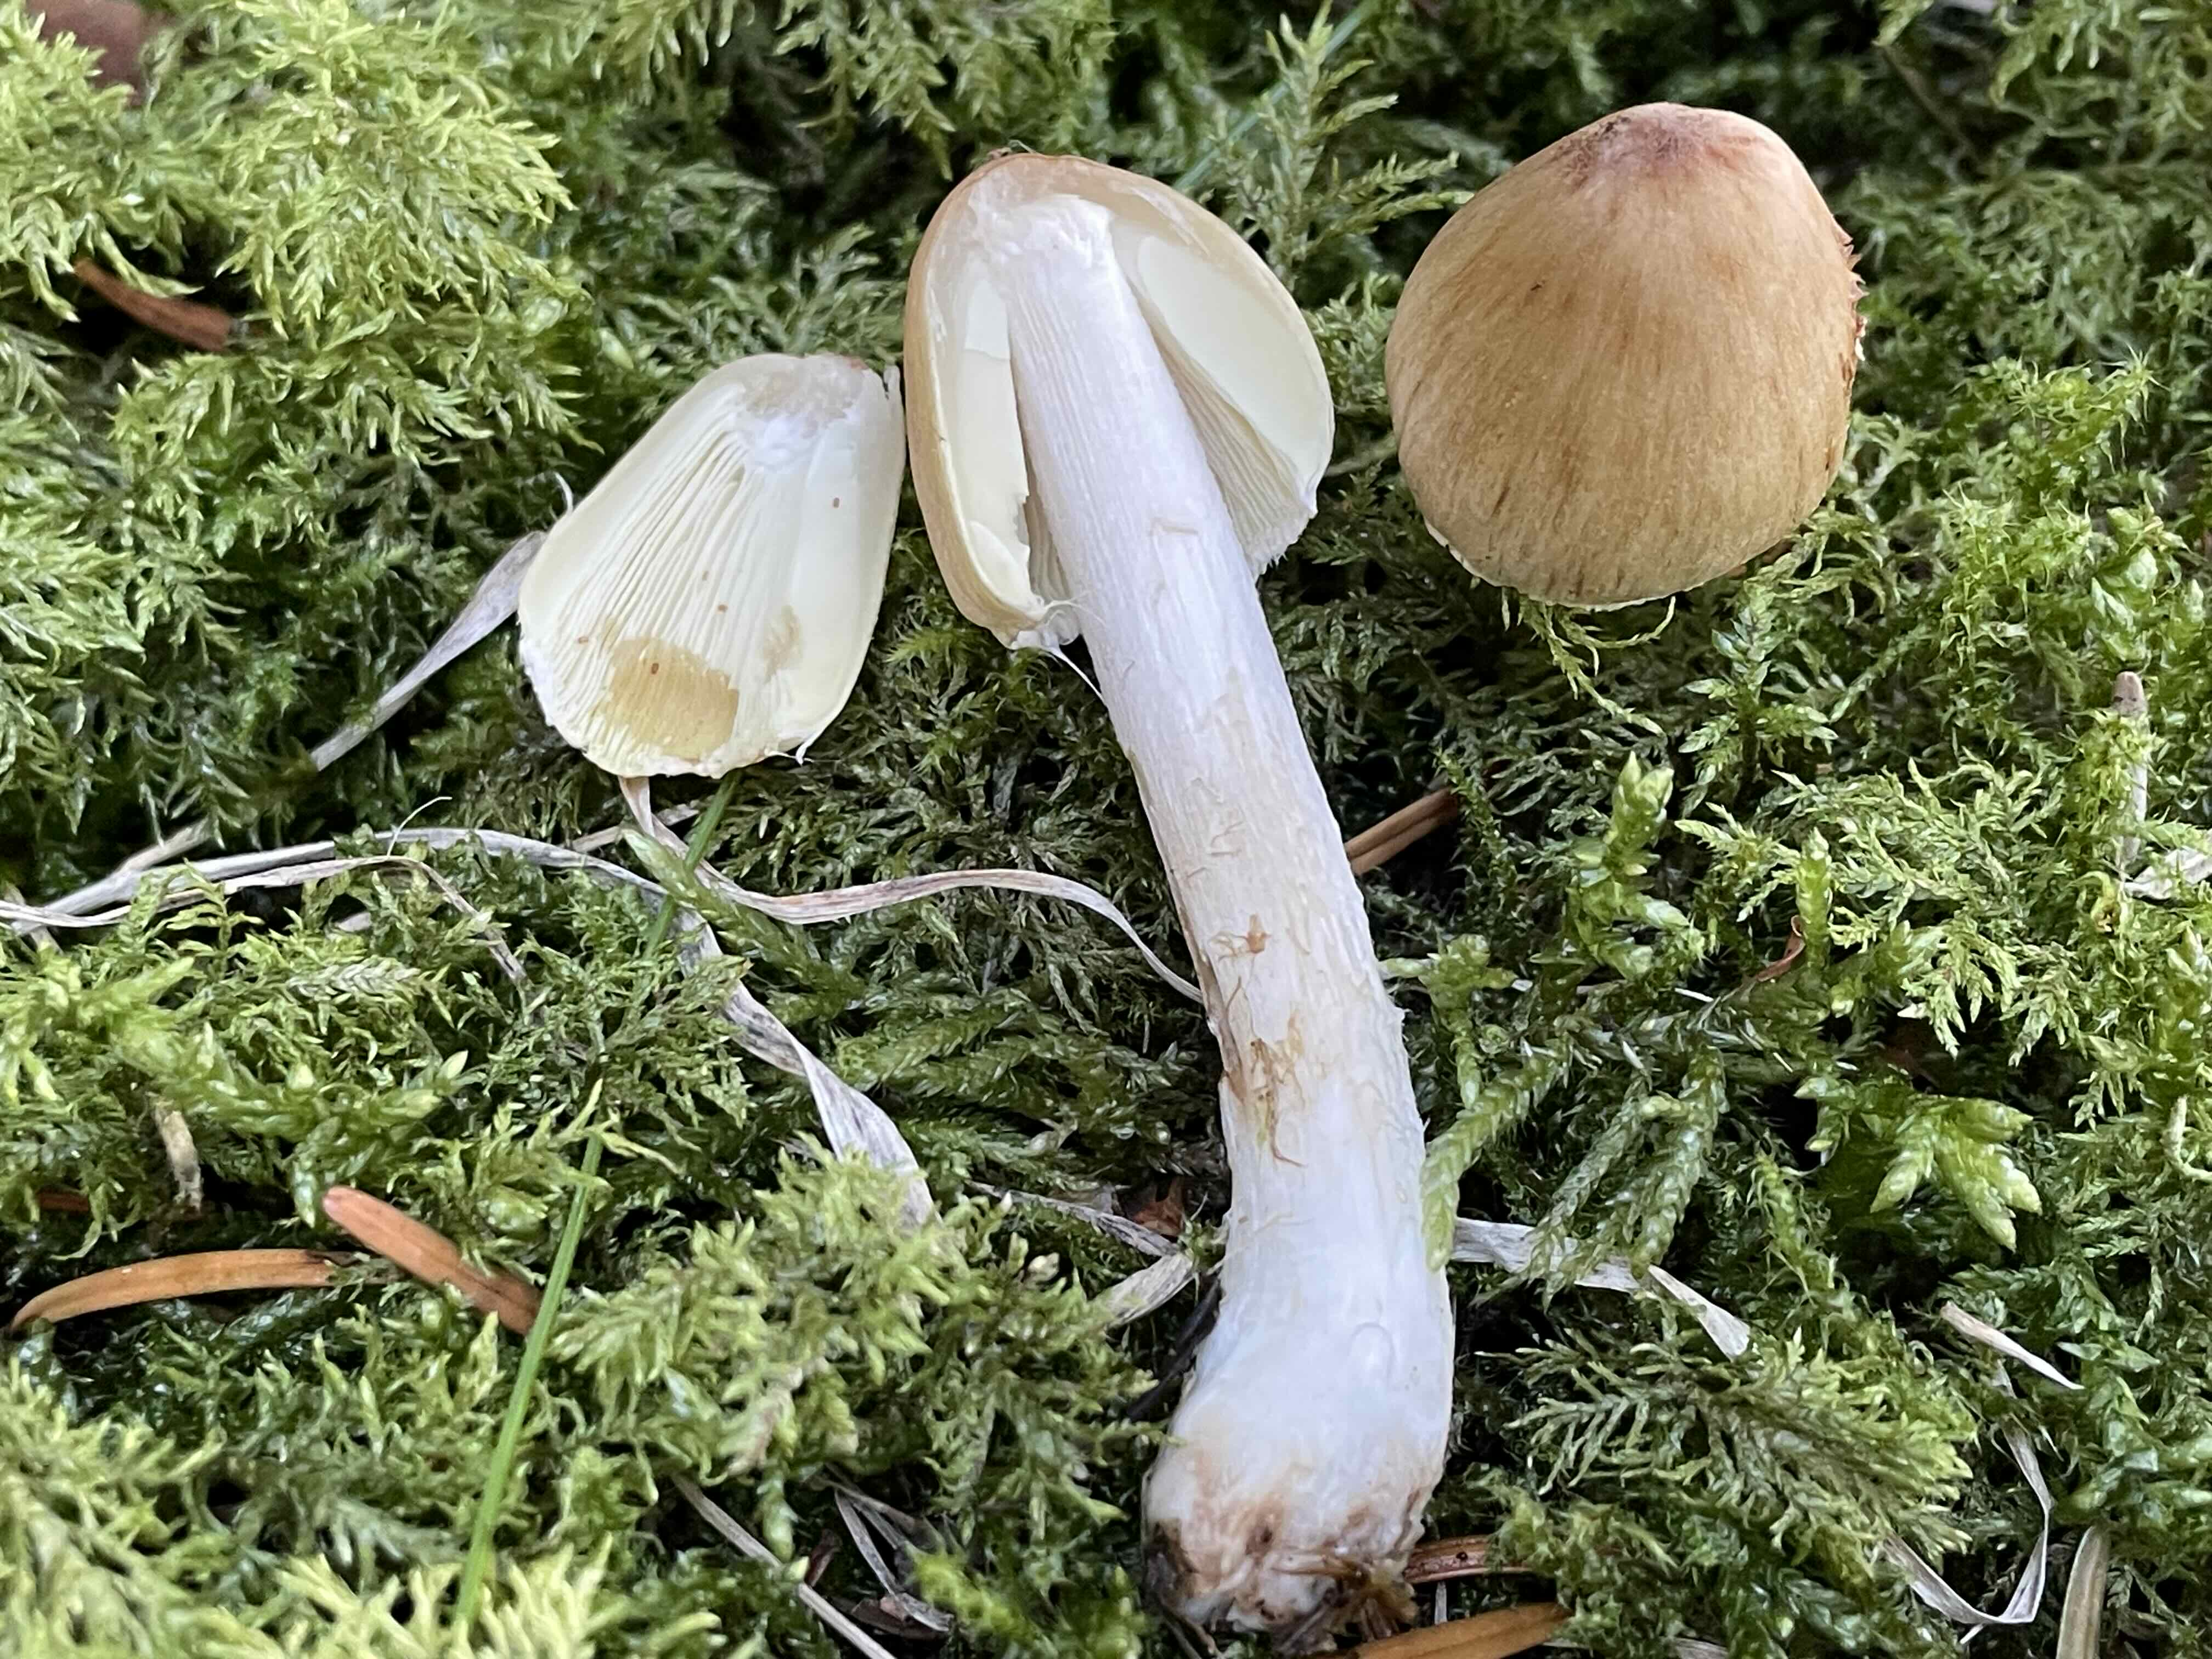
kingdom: Fungi
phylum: Basidiomycota
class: Agaricomycetes
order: Agaricales
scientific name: Agaricales
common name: champignonordenen
